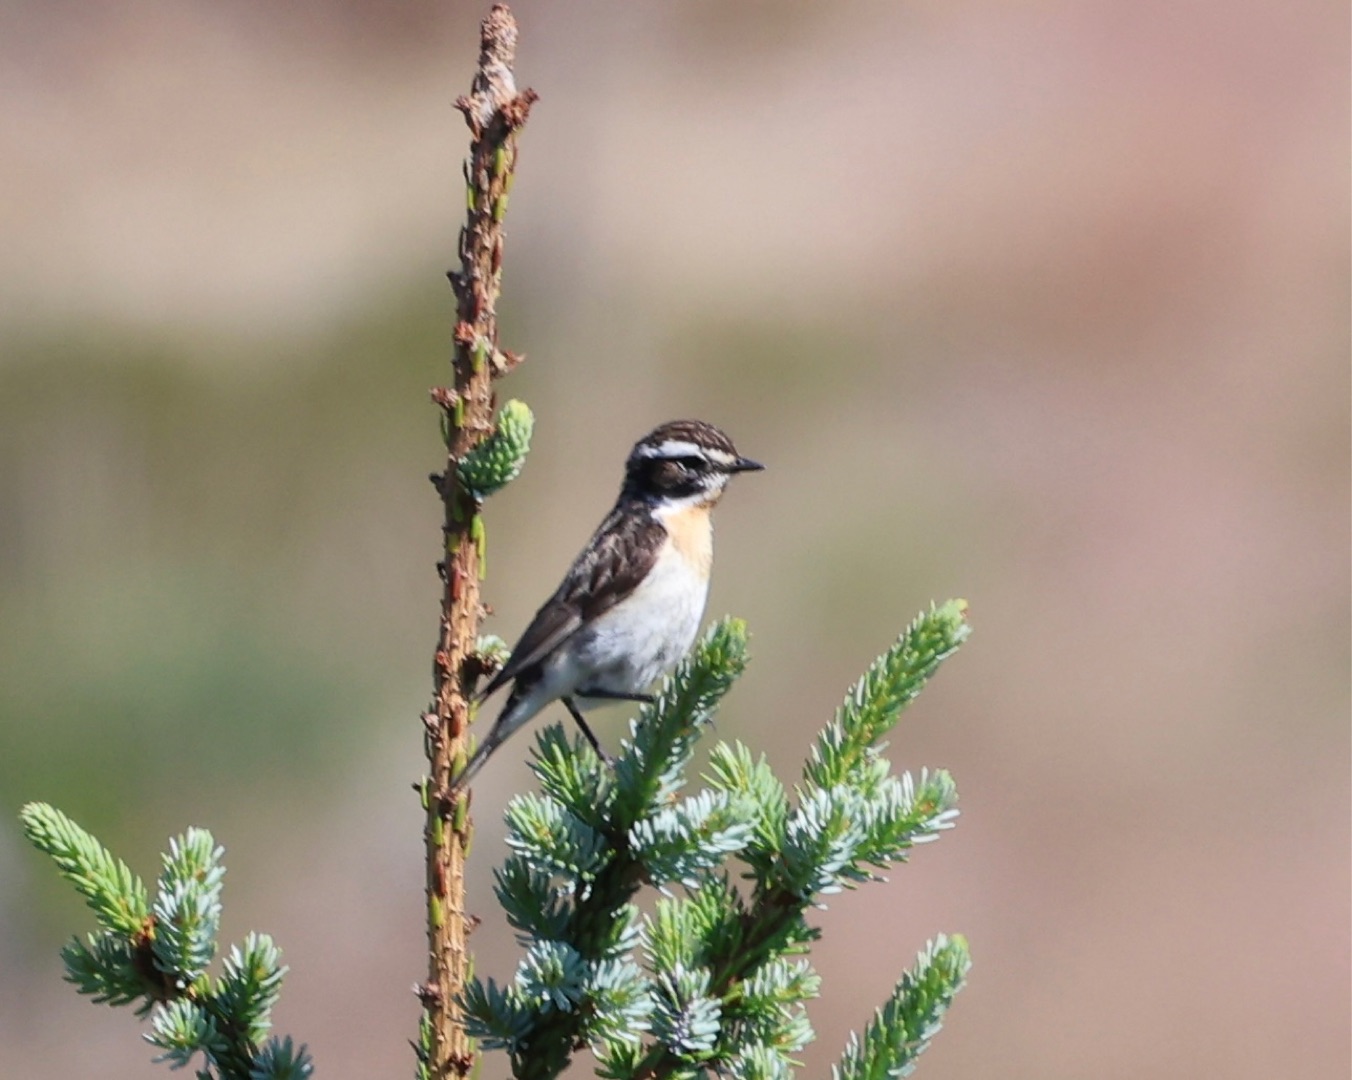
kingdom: Animalia
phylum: Chordata
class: Aves
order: Passeriformes
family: Muscicapidae
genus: Saxicola
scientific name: Saxicola rubetra
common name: Bynkefugl
